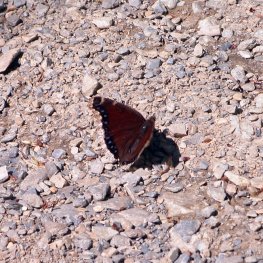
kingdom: Animalia
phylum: Arthropoda
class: Insecta
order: Lepidoptera
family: Nymphalidae
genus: Nymphalis
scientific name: Nymphalis antiopa
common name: Mourning Cloak
